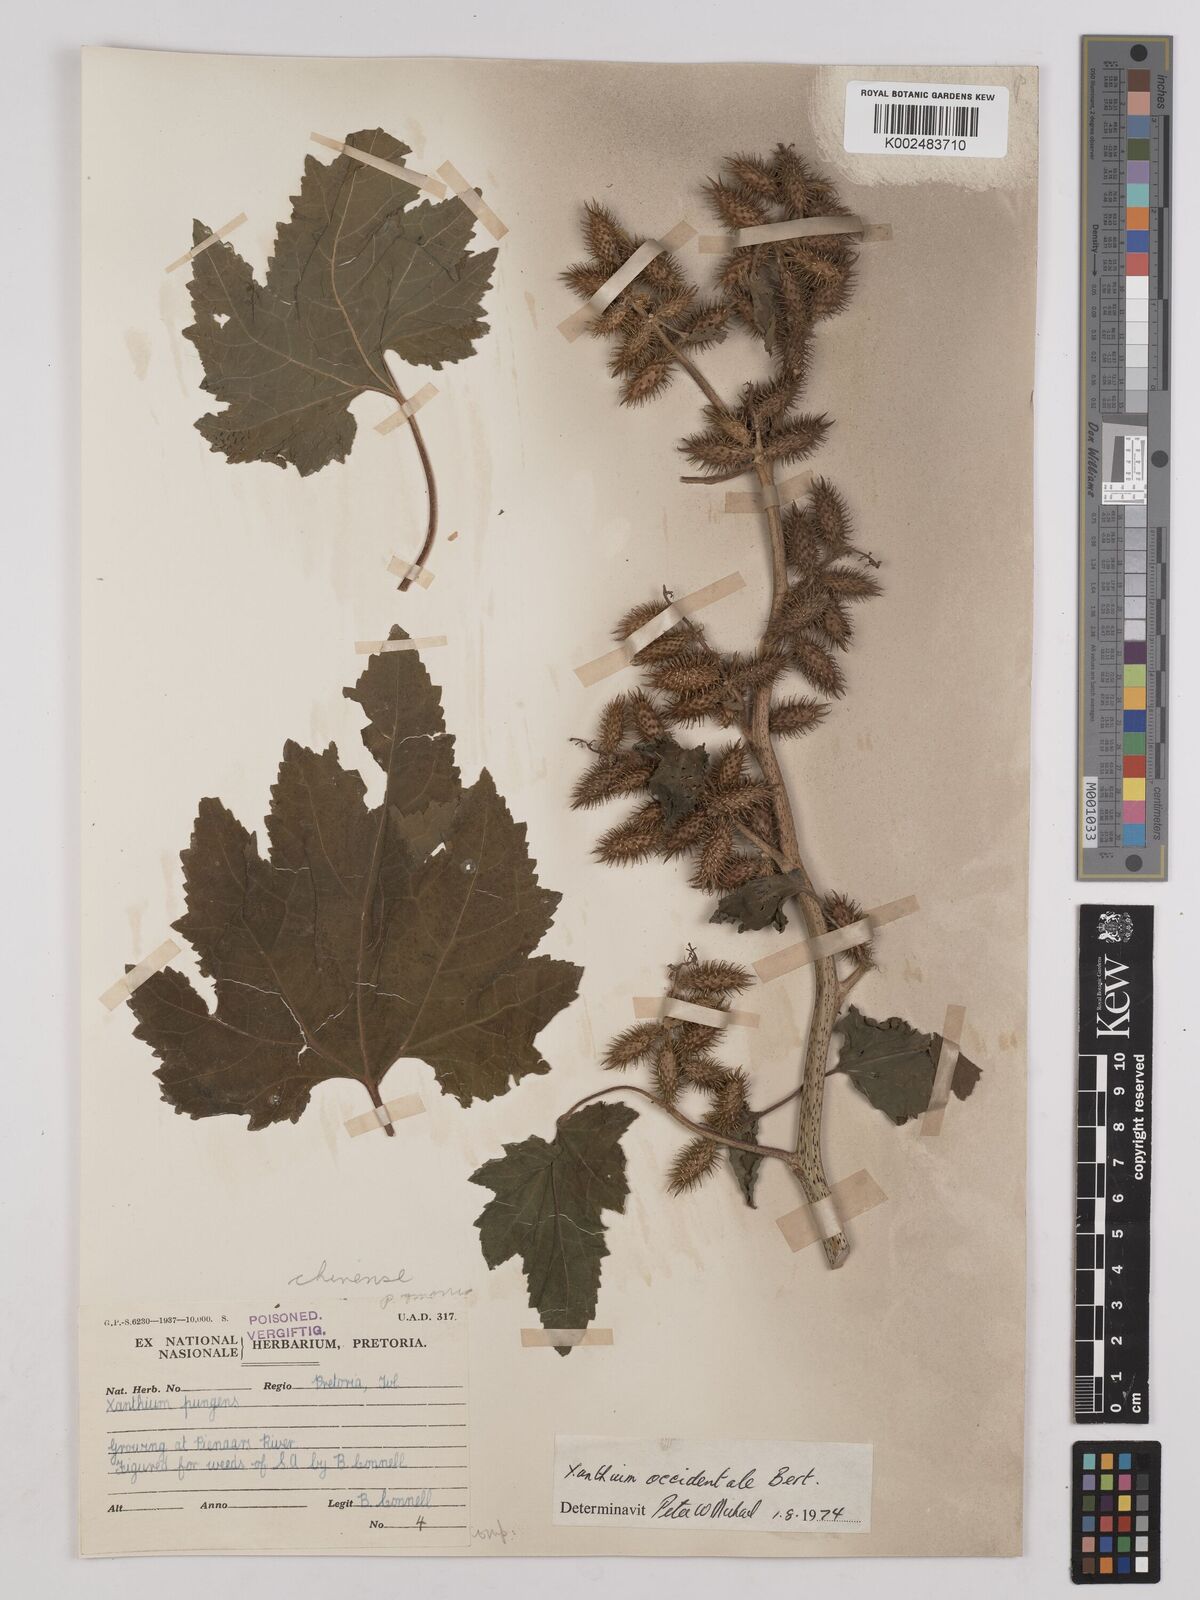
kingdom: Plantae
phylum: Tracheophyta
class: Magnoliopsida
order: Asterales
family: Asteraceae
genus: Xanthium
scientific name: Xanthium occidentale
